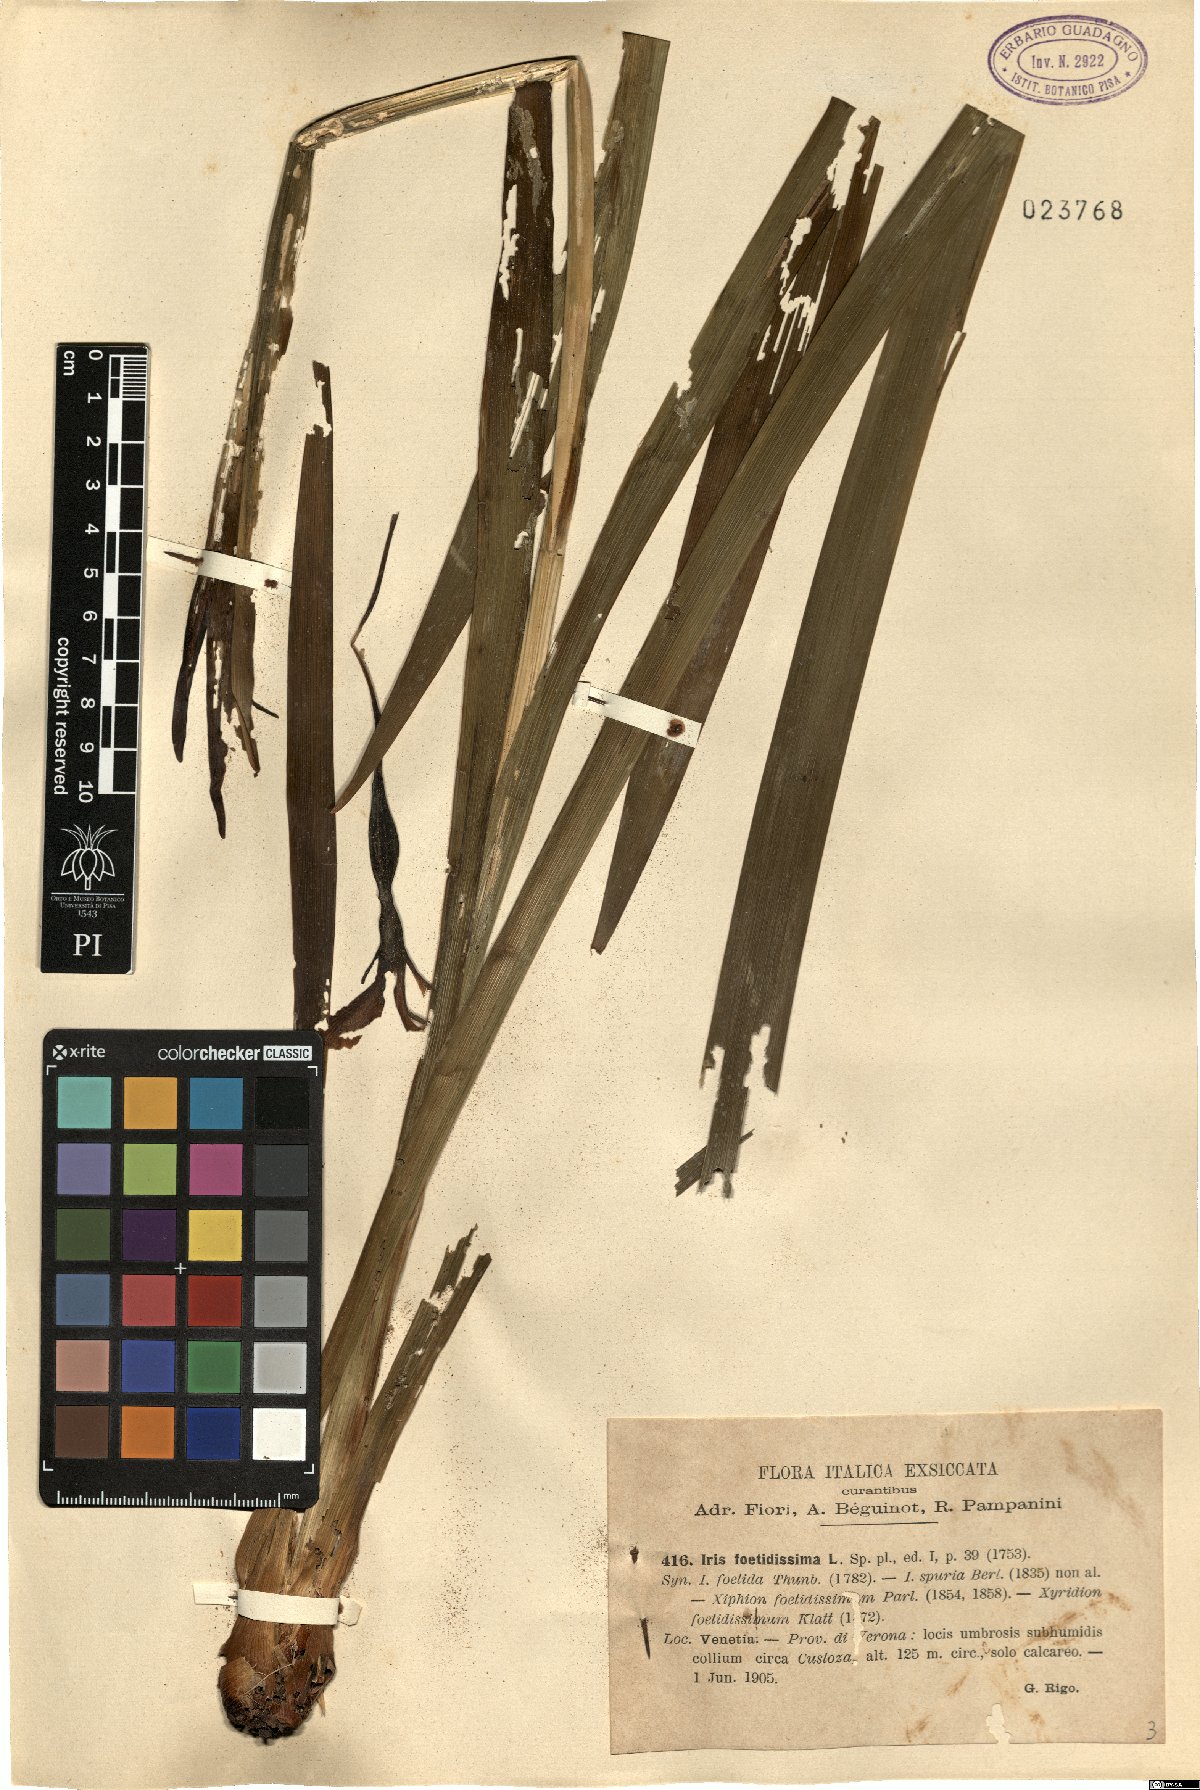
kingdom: Plantae
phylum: Tracheophyta
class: Liliopsida
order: Asparagales
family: Iridaceae
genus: Iris
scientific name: Iris foetidissima
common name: Stinking iris
